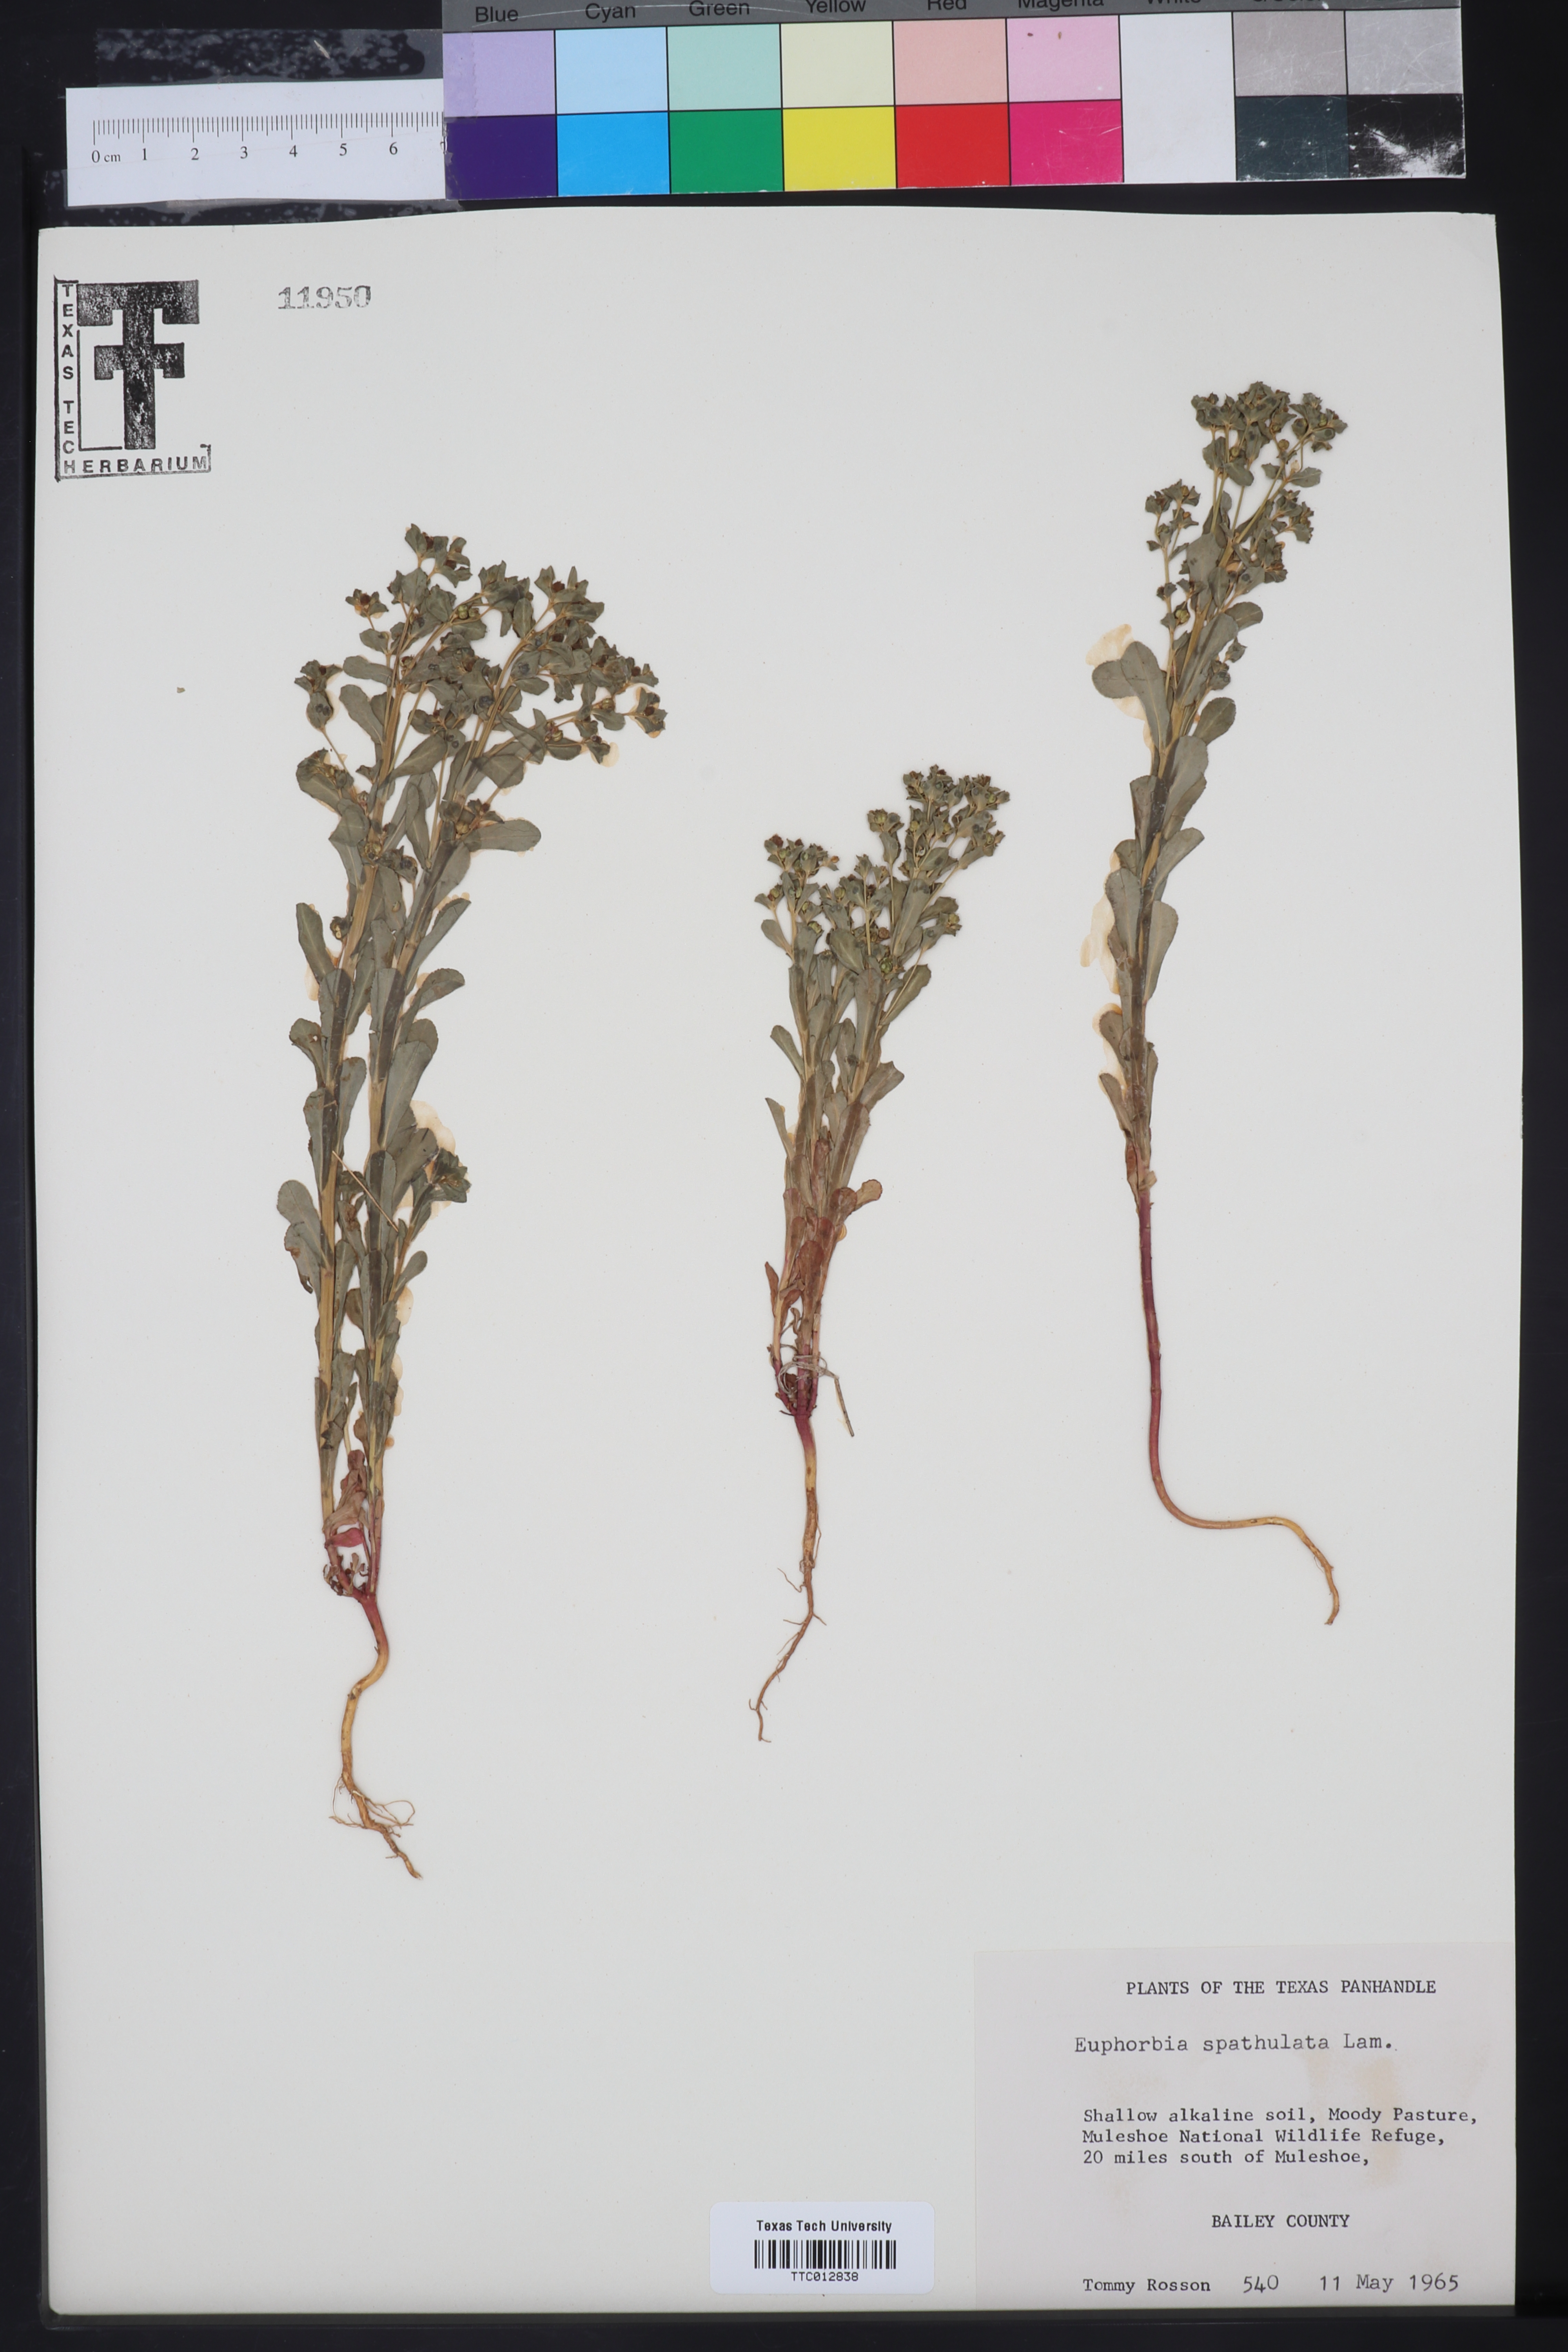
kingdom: Plantae
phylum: Tracheophyta
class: Magnoliopsida
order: Malpighiales
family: Euphorbiaceae
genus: Euphorbia
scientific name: Euphorbia spathulata
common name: Blunt spurge
